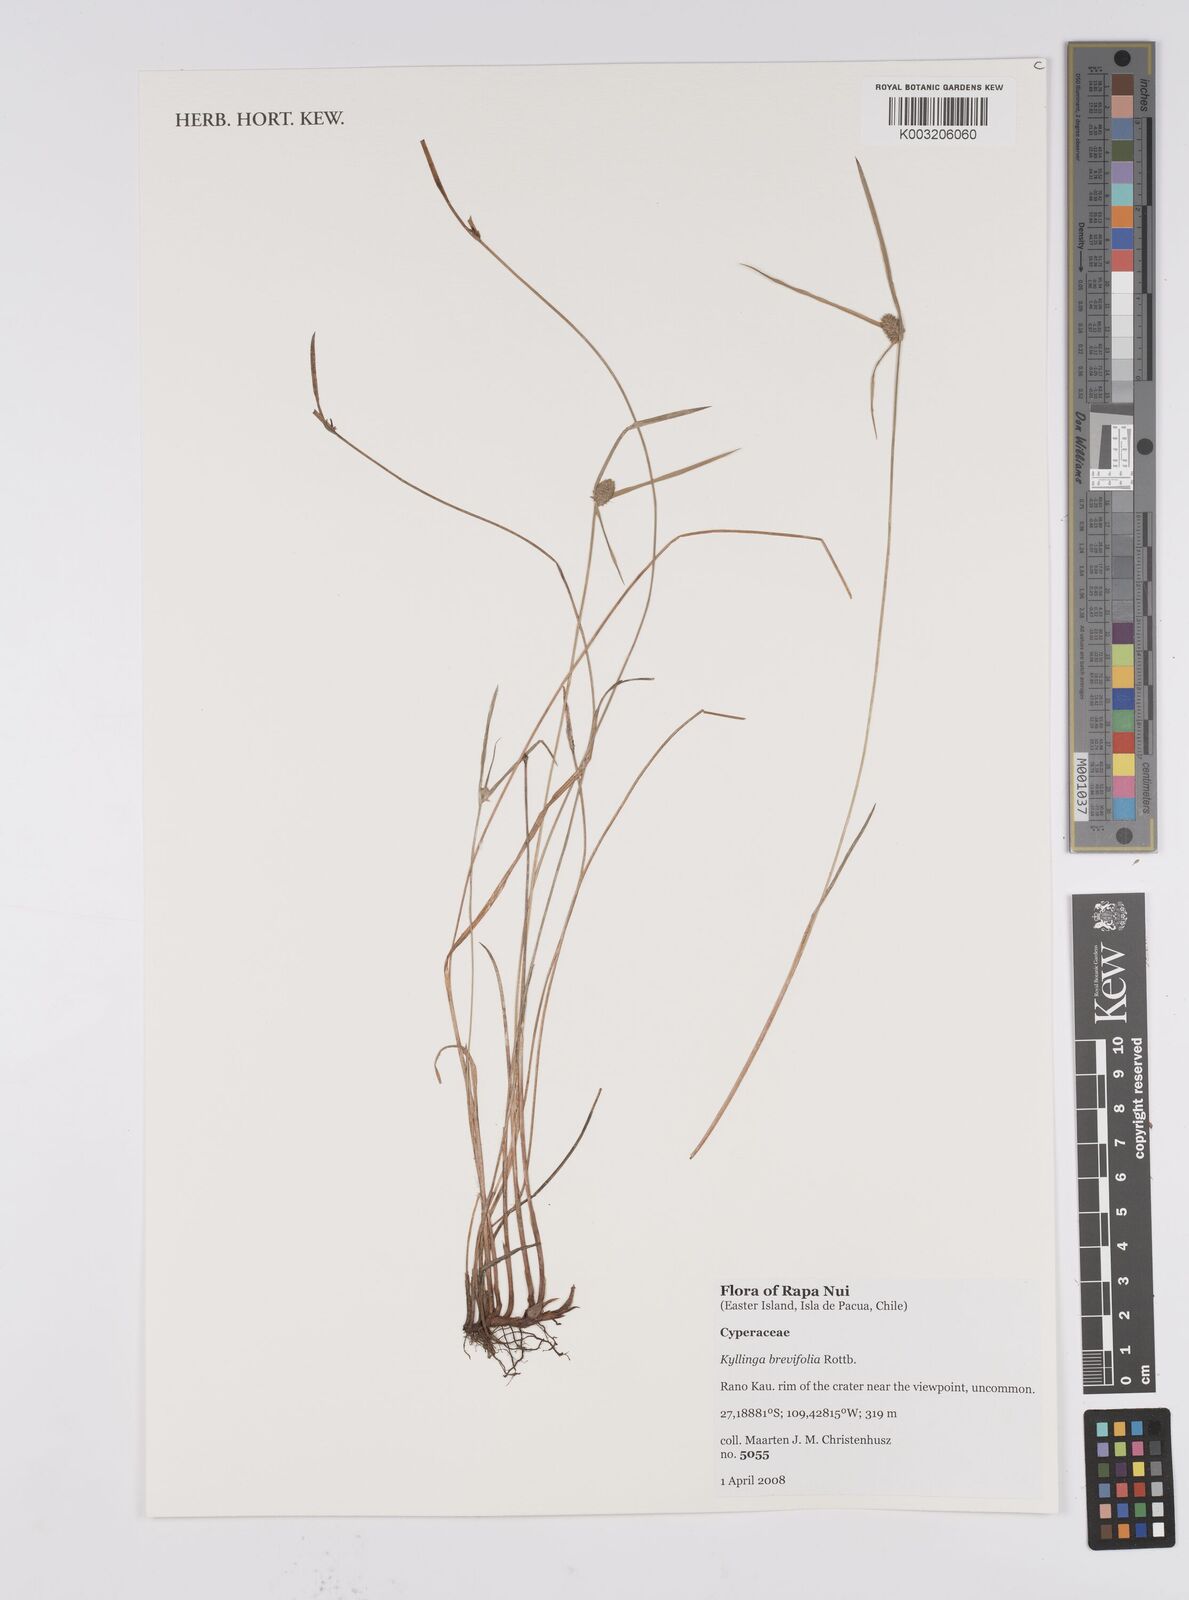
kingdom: Plantae
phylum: Tracheophyta
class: Liliopsida
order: Poales
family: Cyperaceae
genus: Cyperus
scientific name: Cyperus brevifolius
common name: Globe kyllinga
